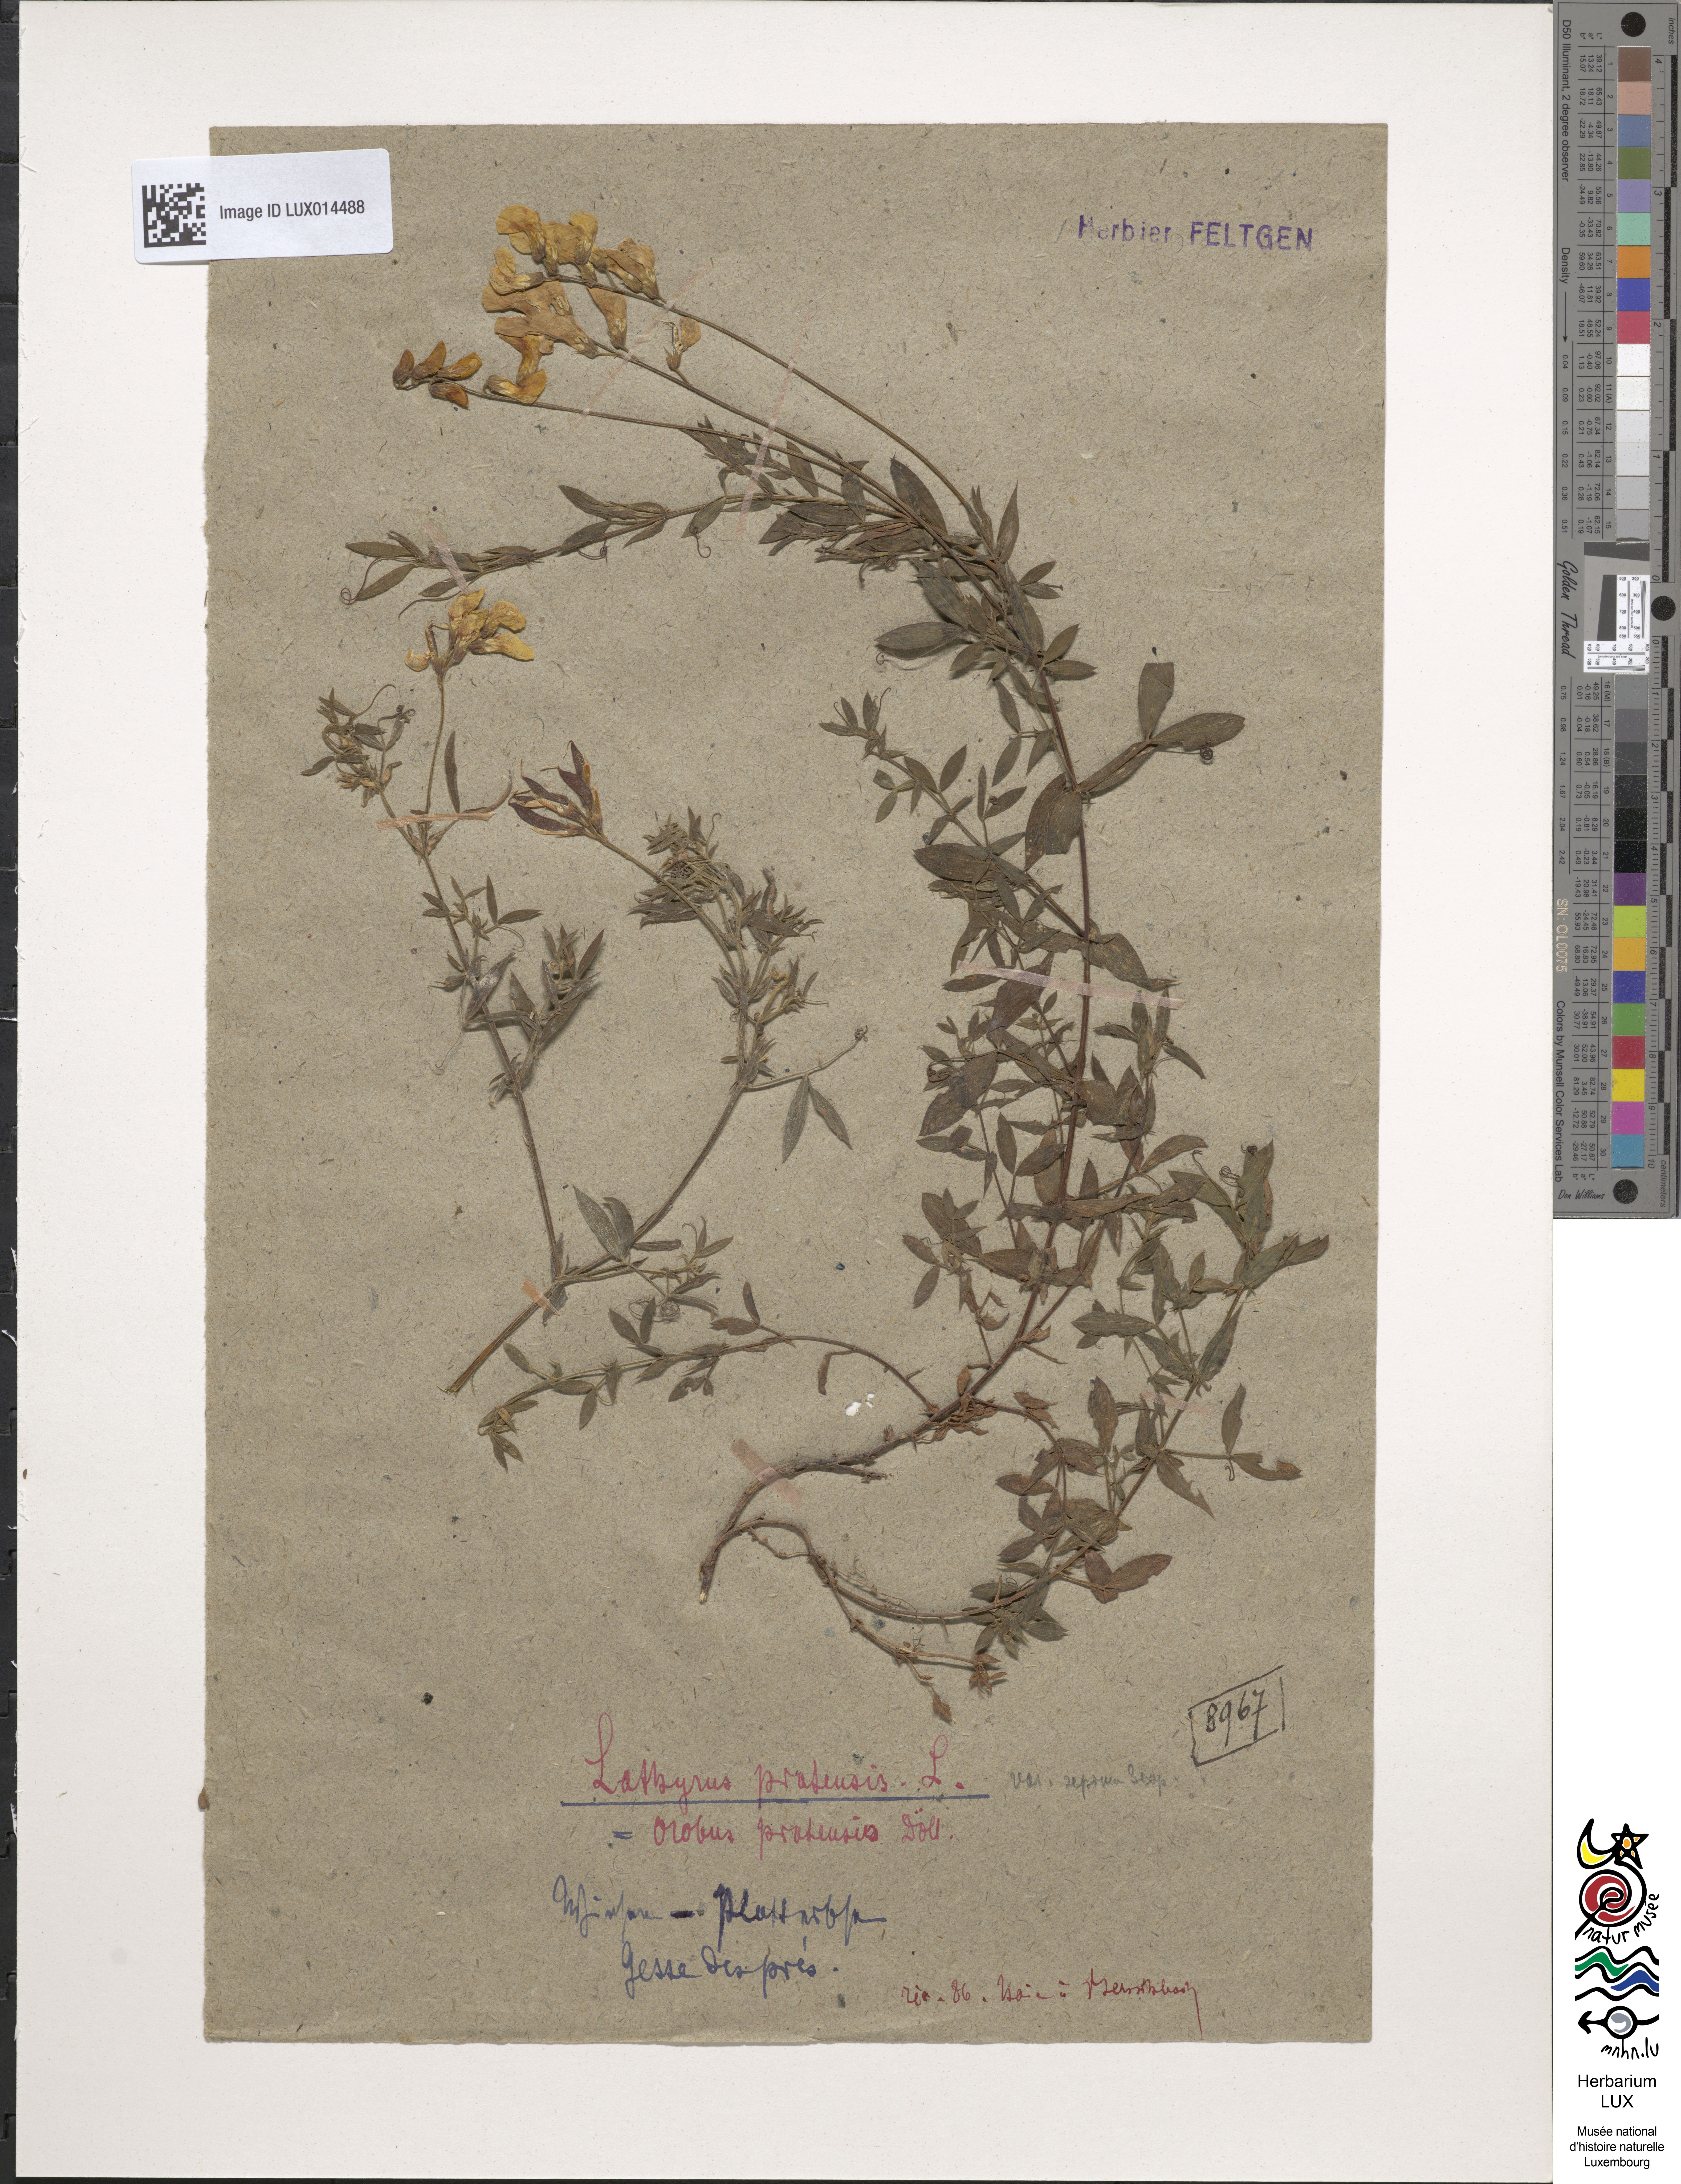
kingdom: Plantae
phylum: Tracheophyta
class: Magnoliopsida
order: Fabales
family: Fabaceae
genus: Lathyrus
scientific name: Lathyrus pratensis
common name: Meadow vetchling
